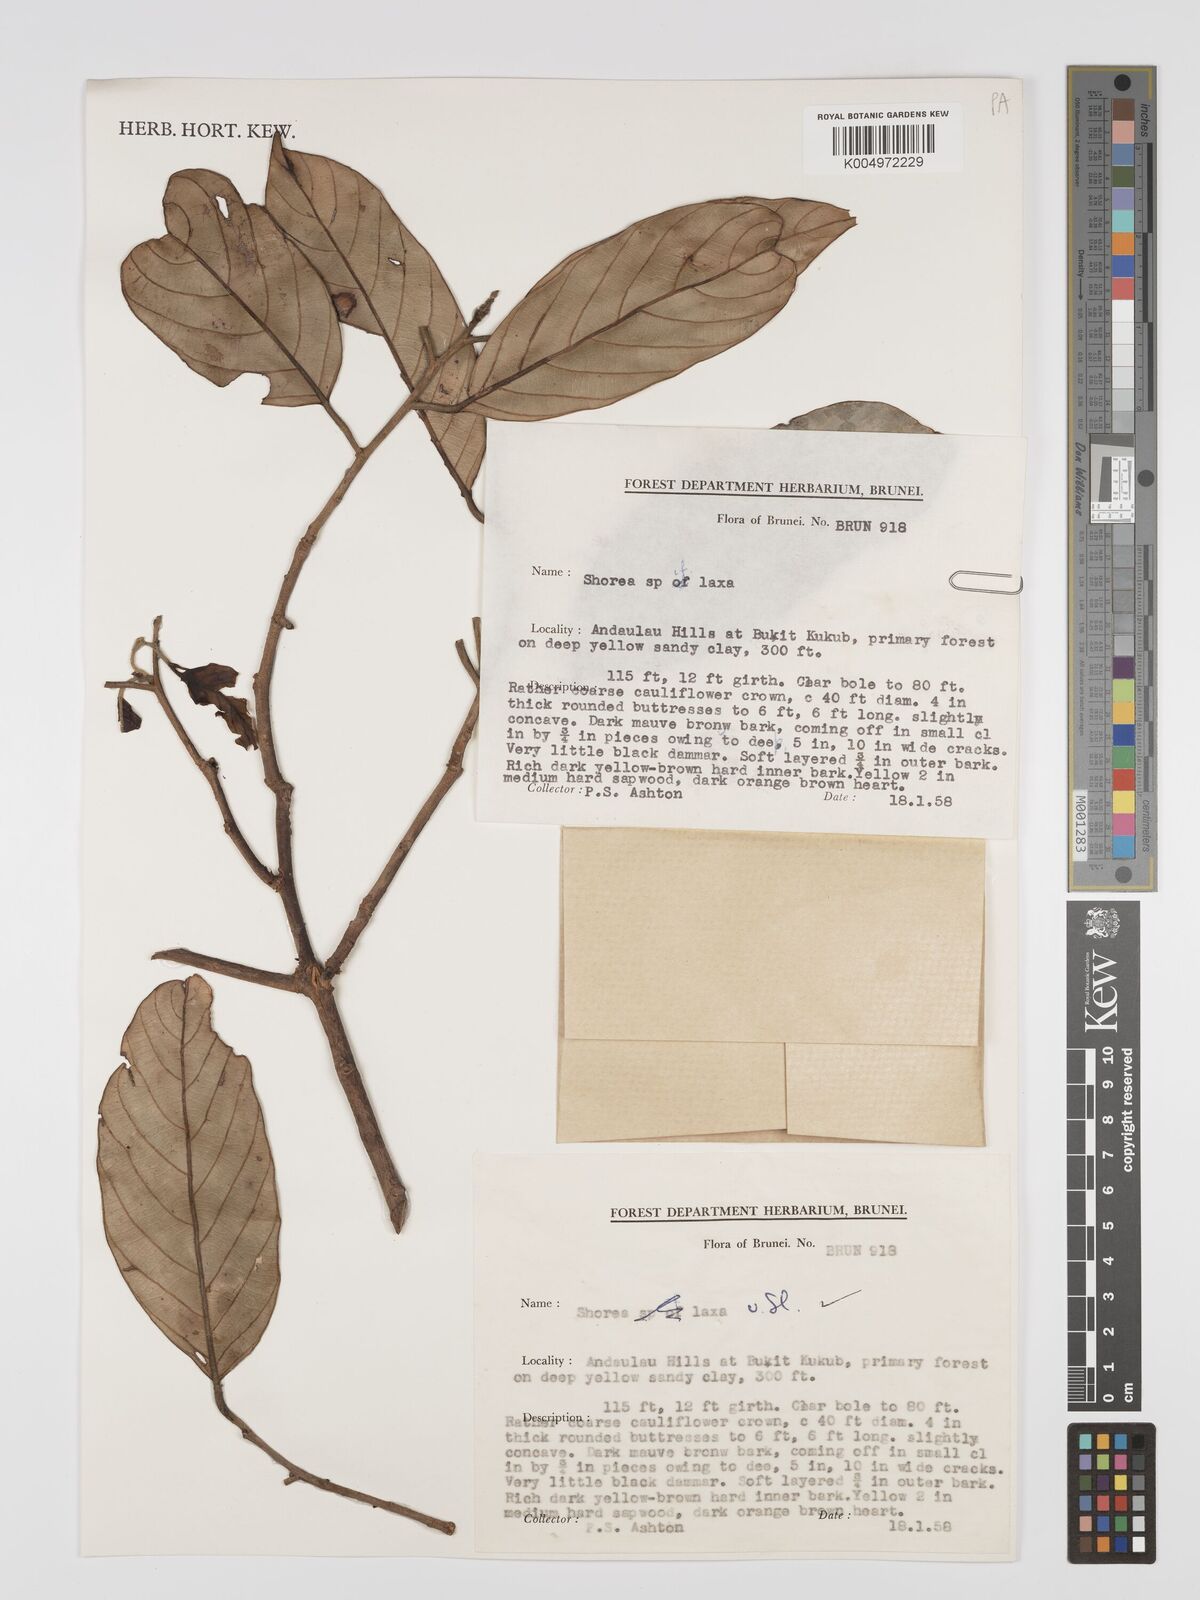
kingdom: Plantae
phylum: Tracheophyta
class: Magnoliopsida
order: Malvales
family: Dipterocarpaceae
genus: Shorea
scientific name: Shorea laxa
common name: Yellow meranti
